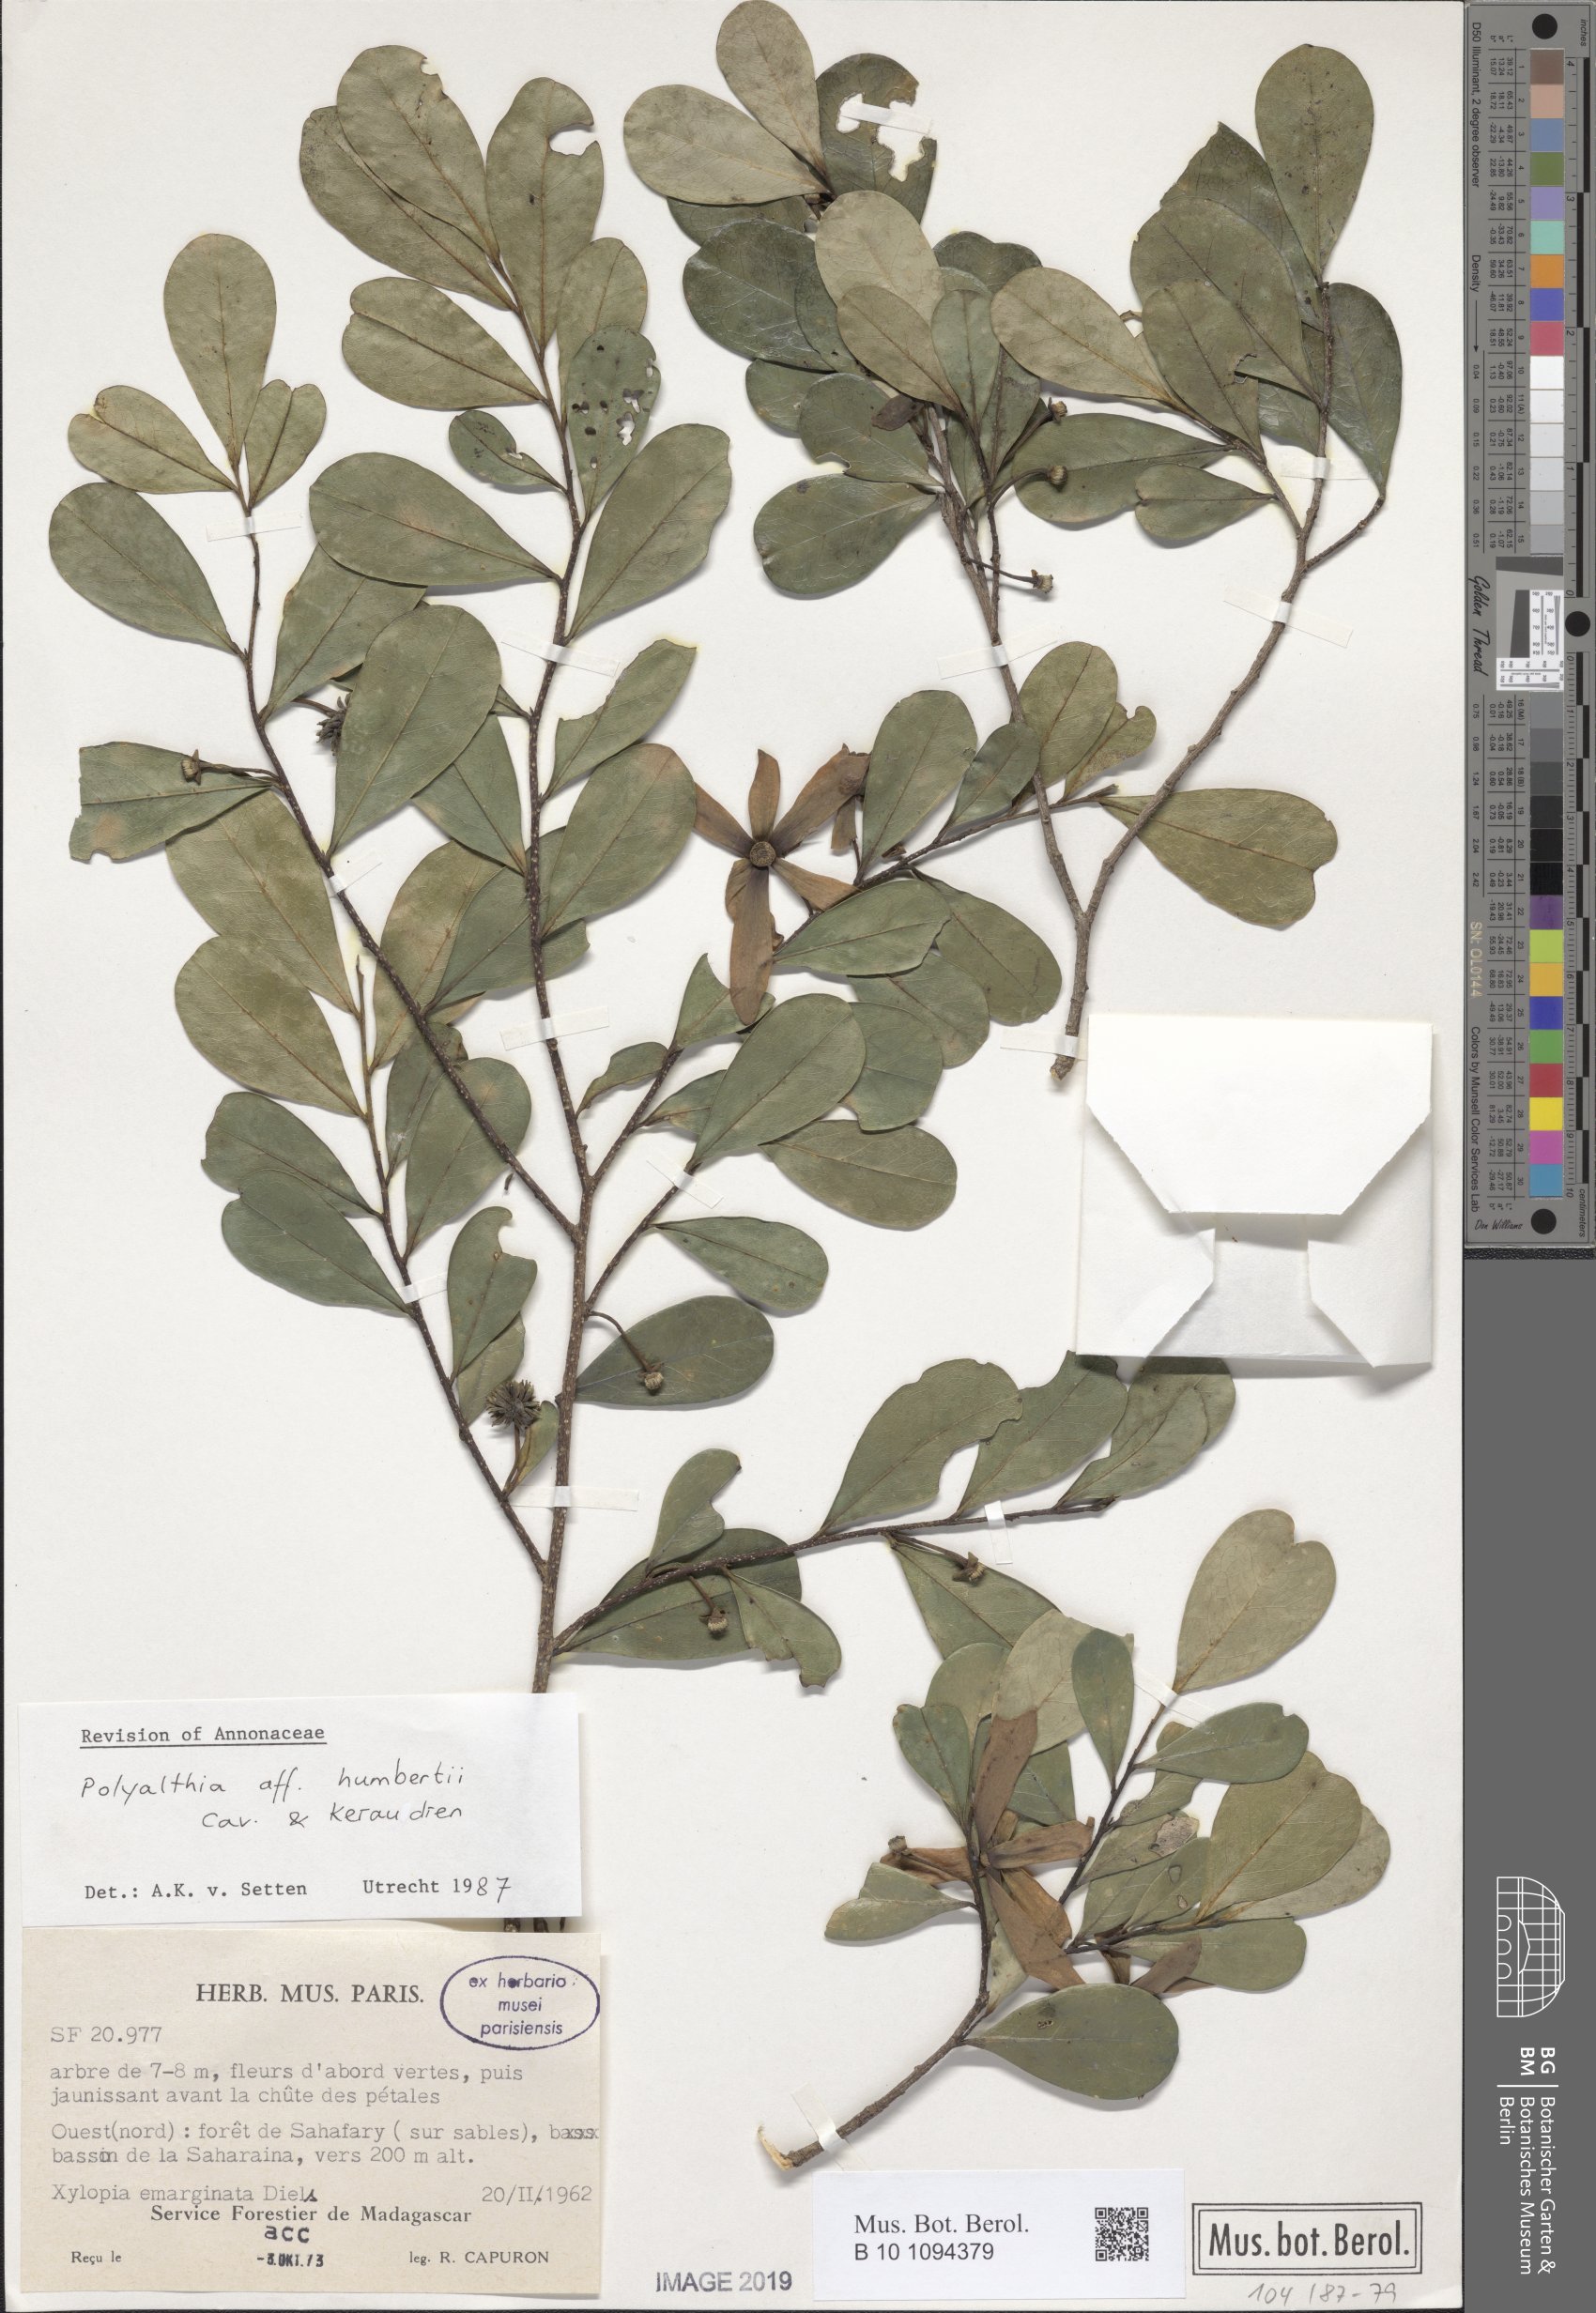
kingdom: Plantae
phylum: Tracheophyta
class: Magnoliopsida
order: Magnoliales
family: Annonaceae
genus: Hubera
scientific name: Hubera jenkinsii
